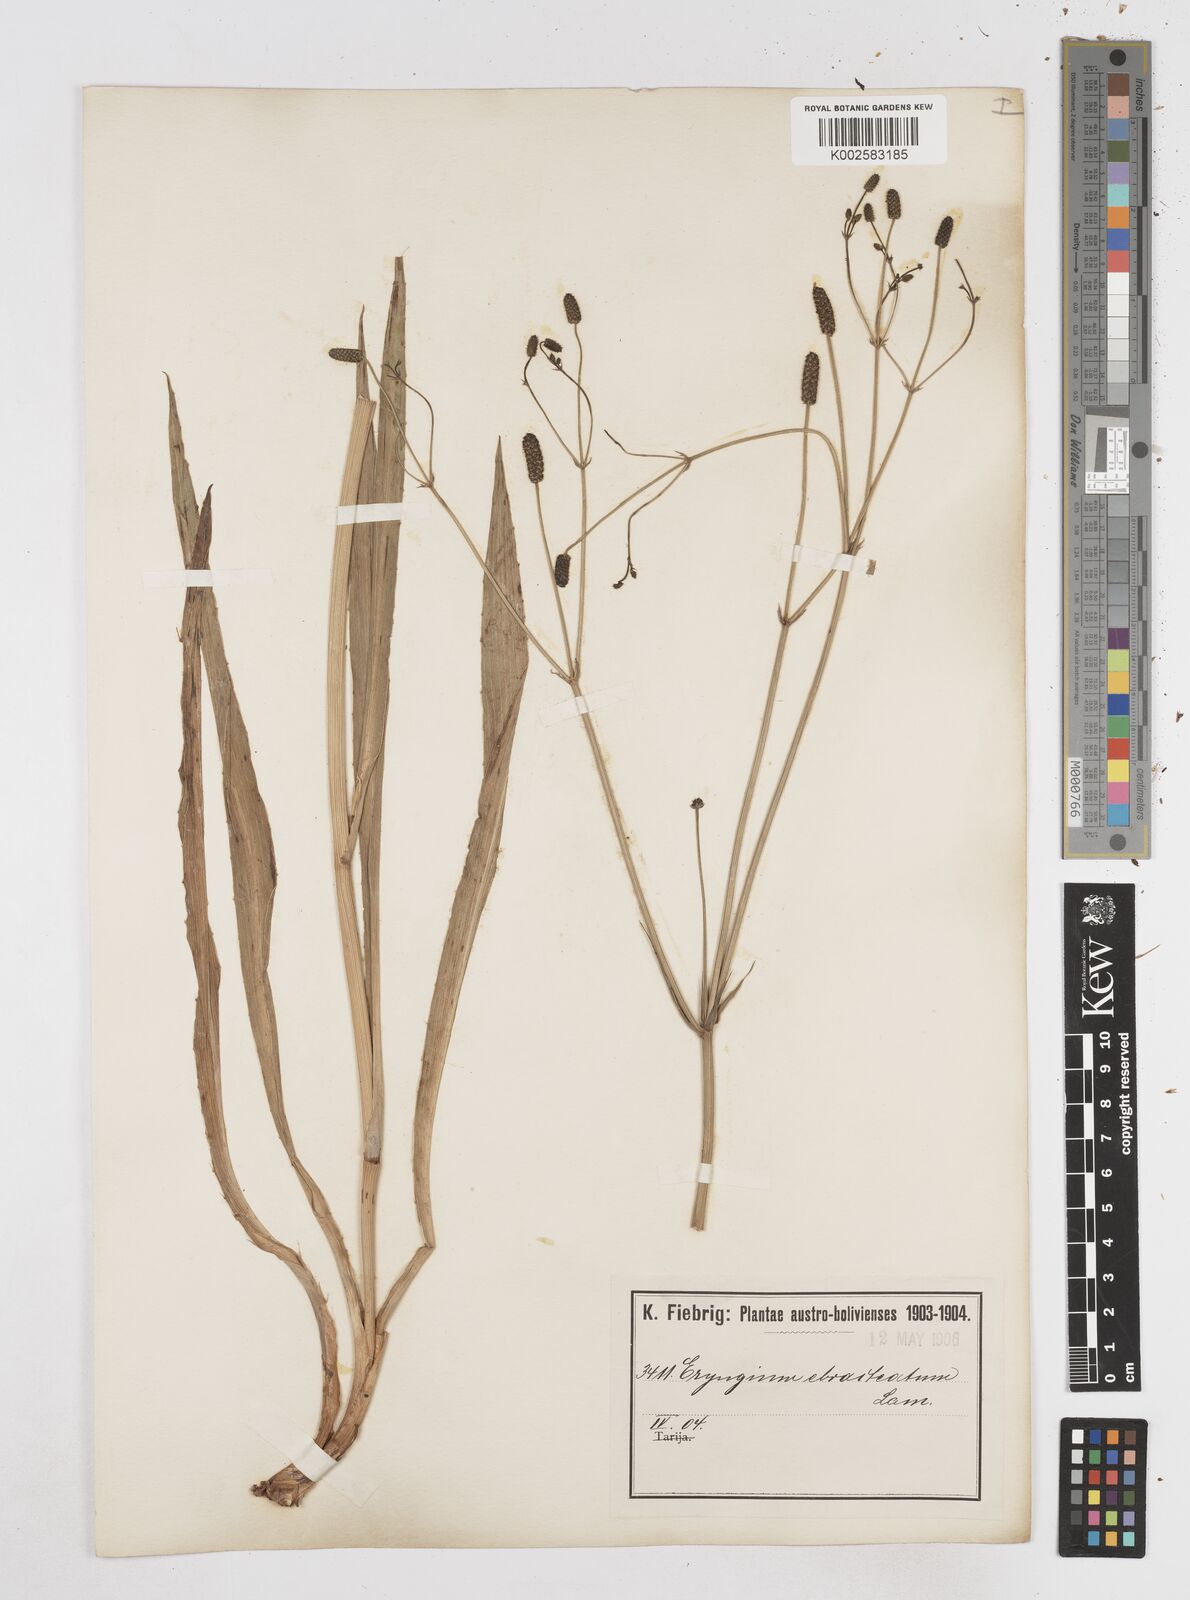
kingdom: Plantae
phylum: Tracheophyta
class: Magnoliopsida
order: Apiales
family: Apiaceae
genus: Eryngium
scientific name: Eryngium ebracteatum
